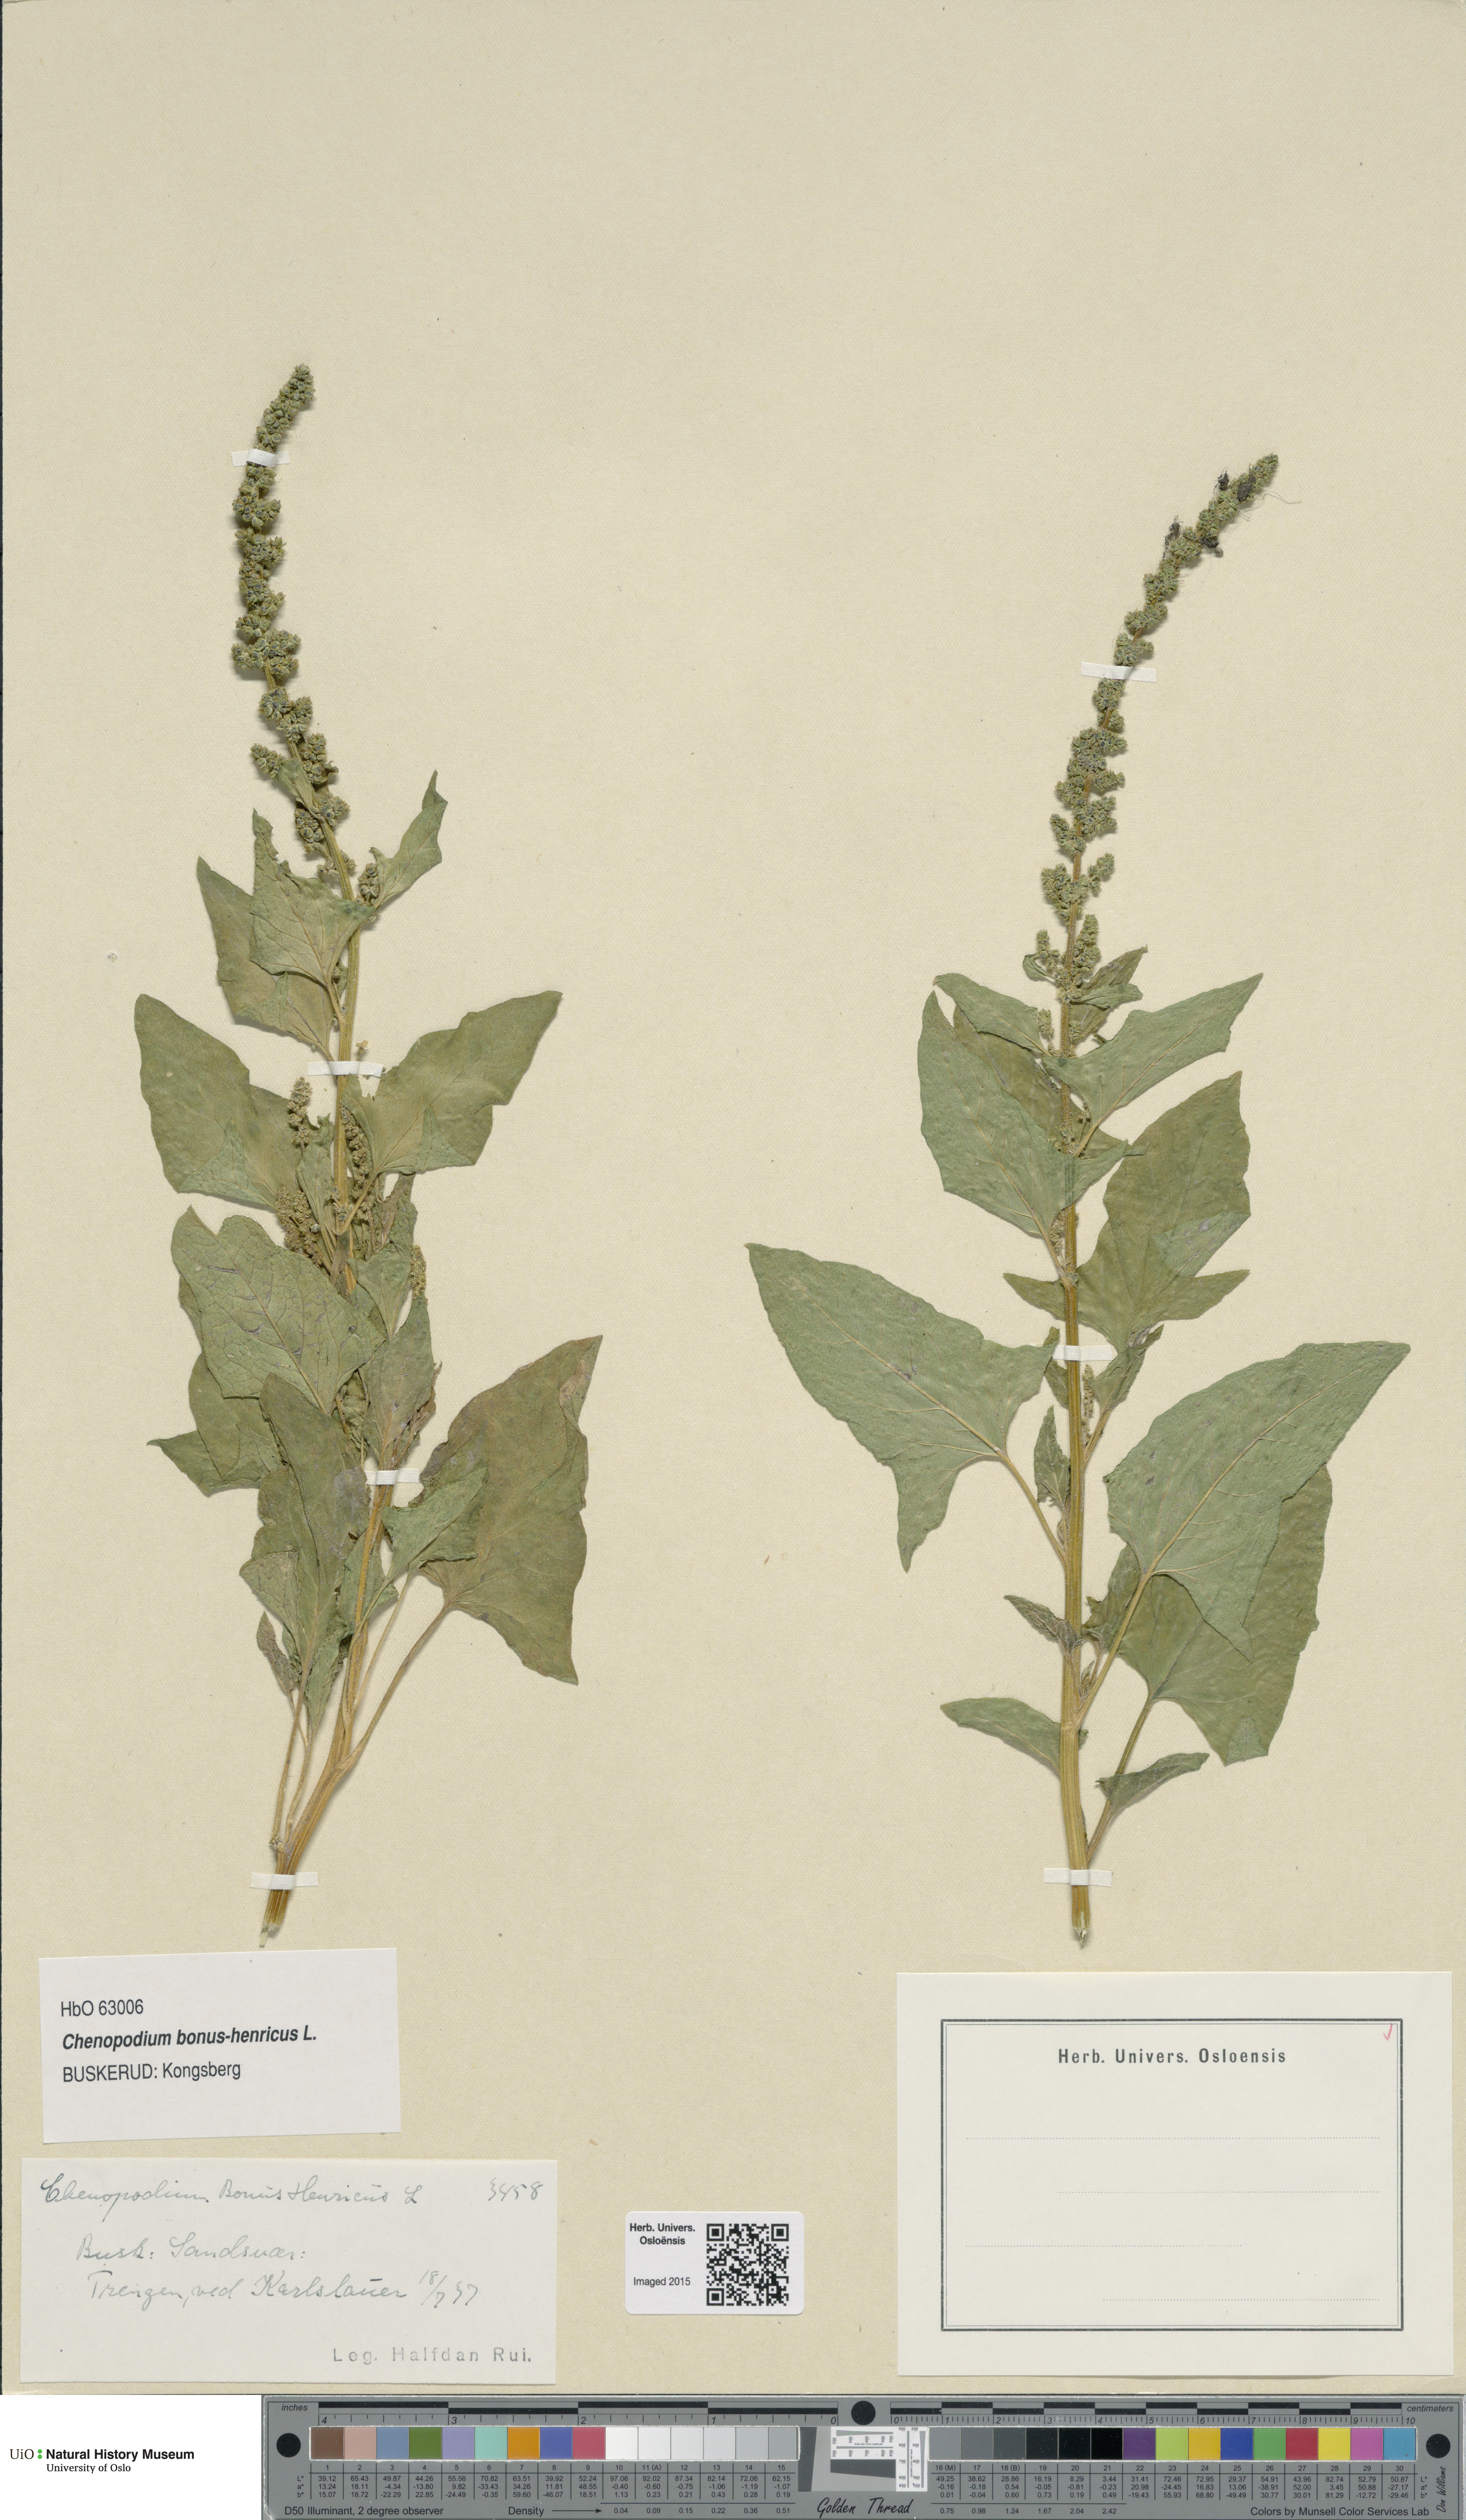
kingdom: Plantae
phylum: Tracheophyta
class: Magnoliopsida
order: Caryophyllales
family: Amaranthaceae
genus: Blitum
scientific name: Blitum bonus-henricus
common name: Good king henry
